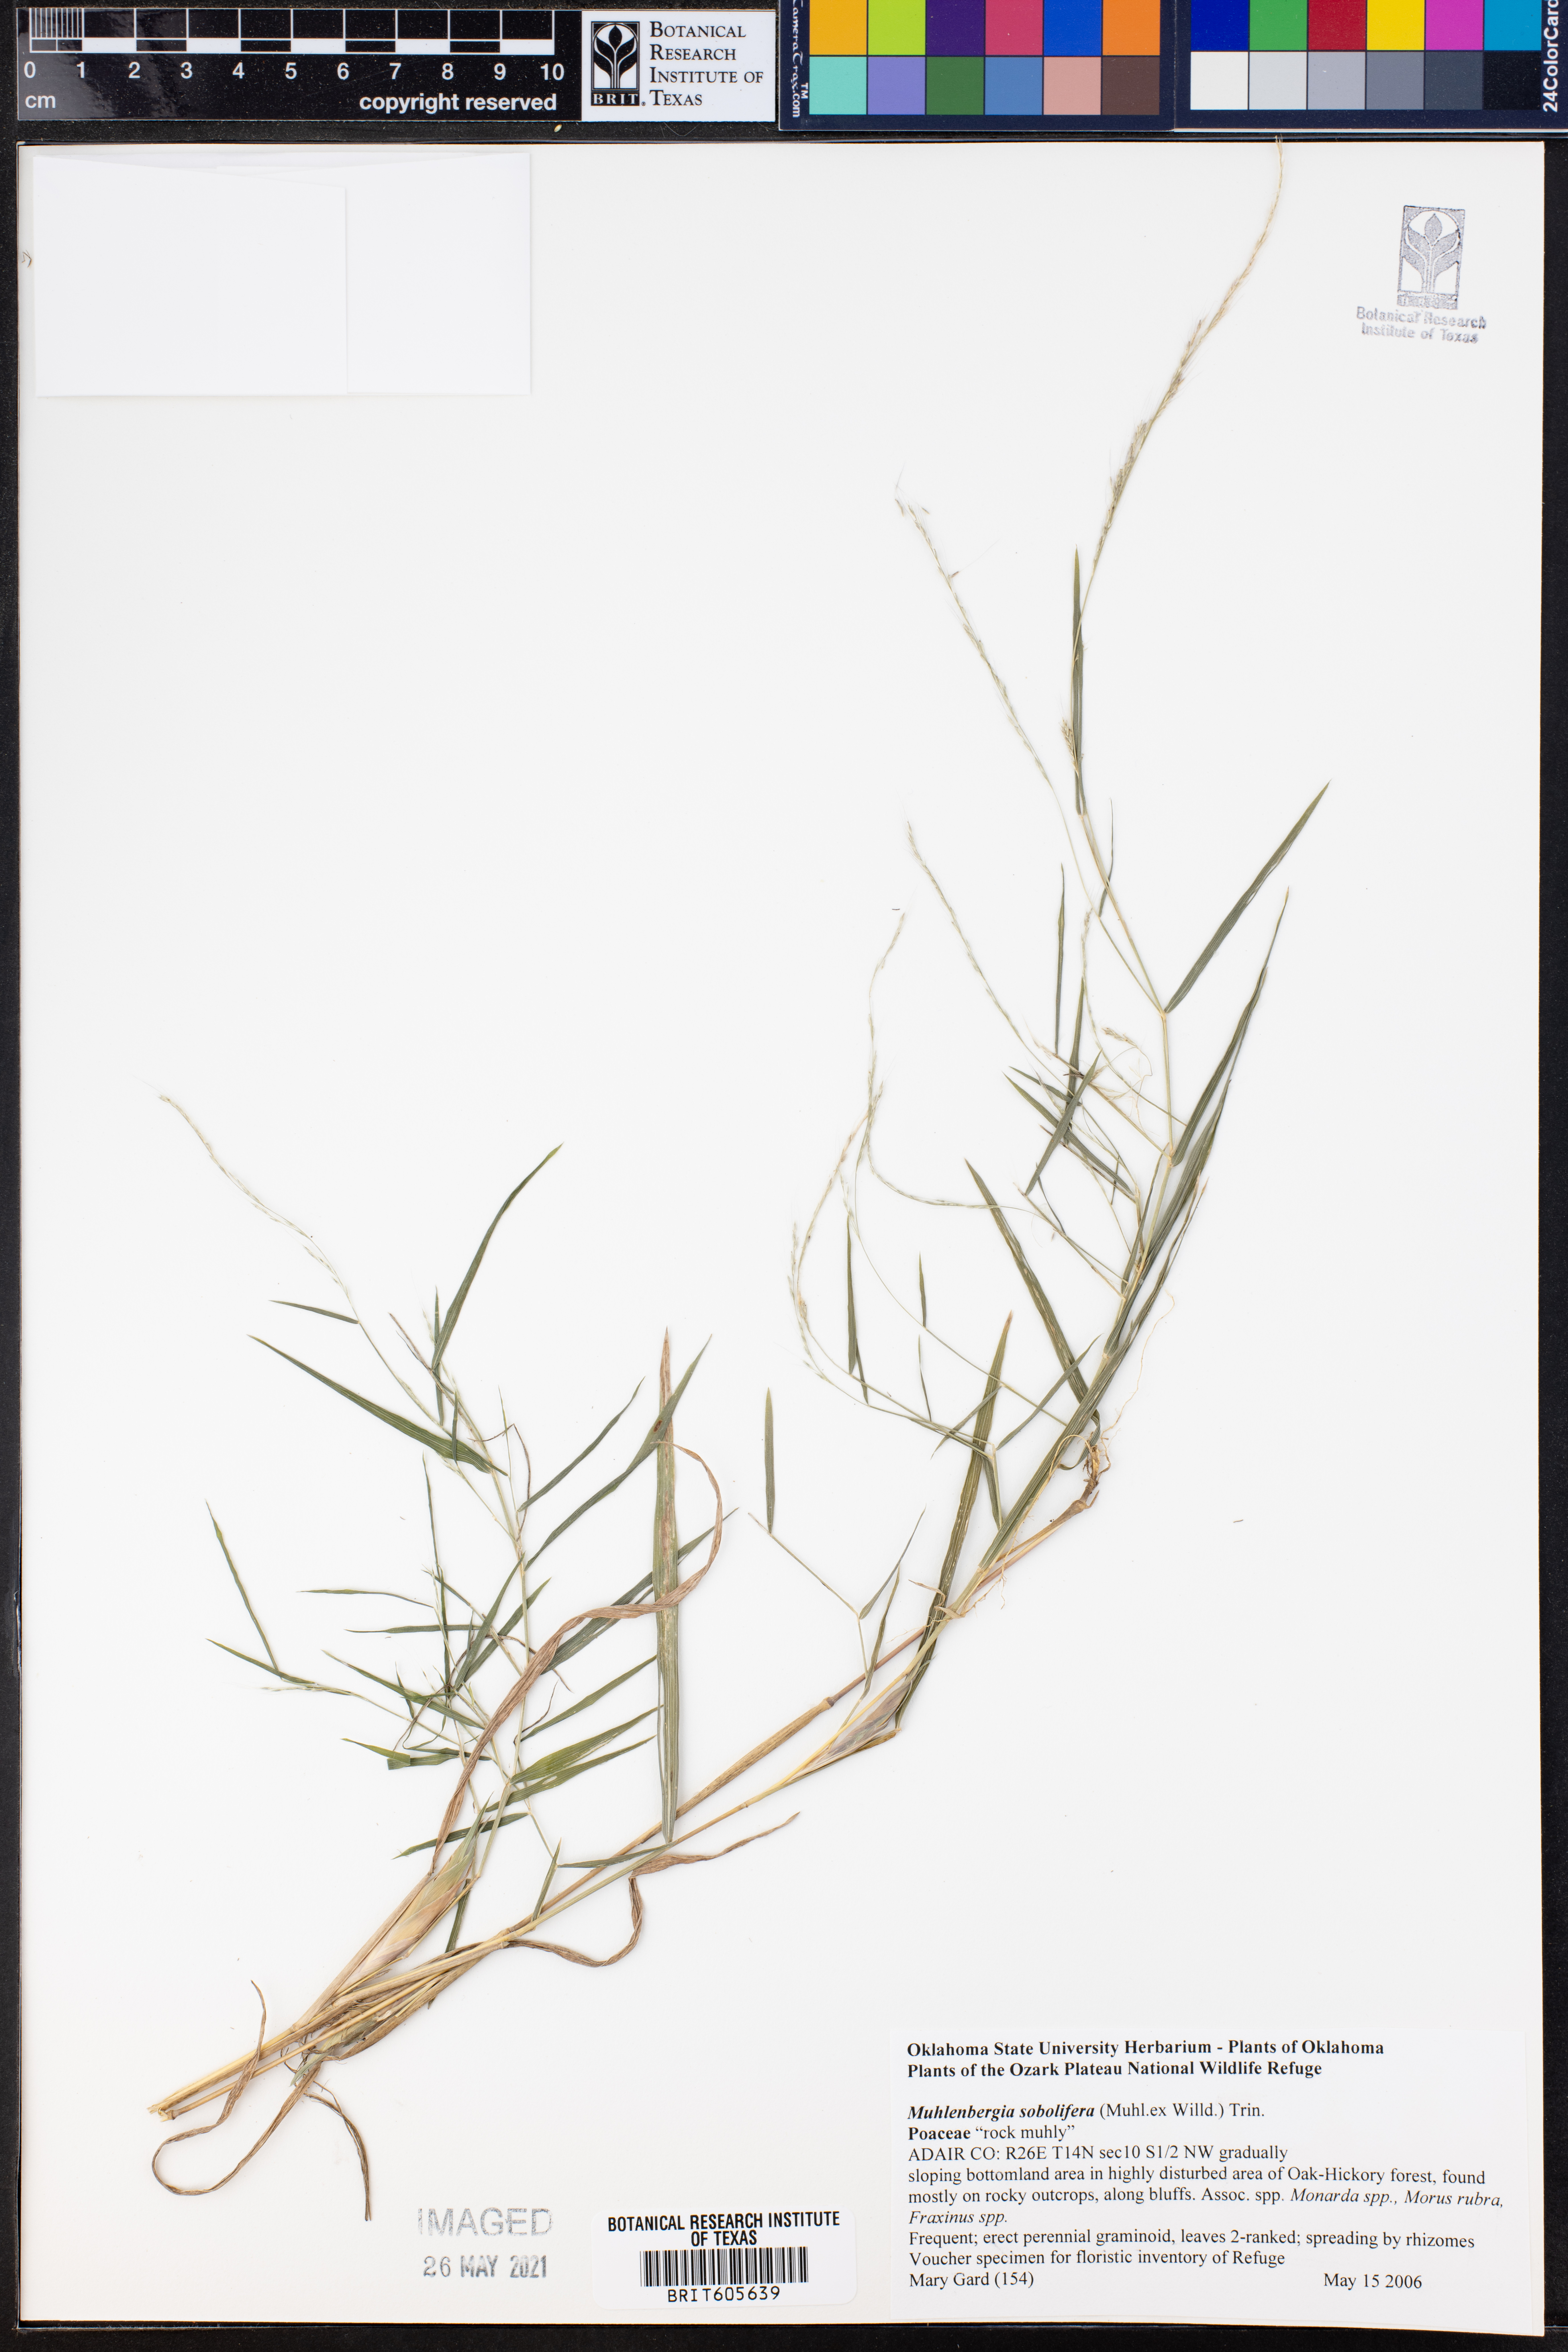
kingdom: Plantae
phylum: Tracheophyta
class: Liliopsida
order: Poales
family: Poaceae
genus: Muhlenbergia
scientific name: Muhlenbergia sobolifera
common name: Creeping muhly
